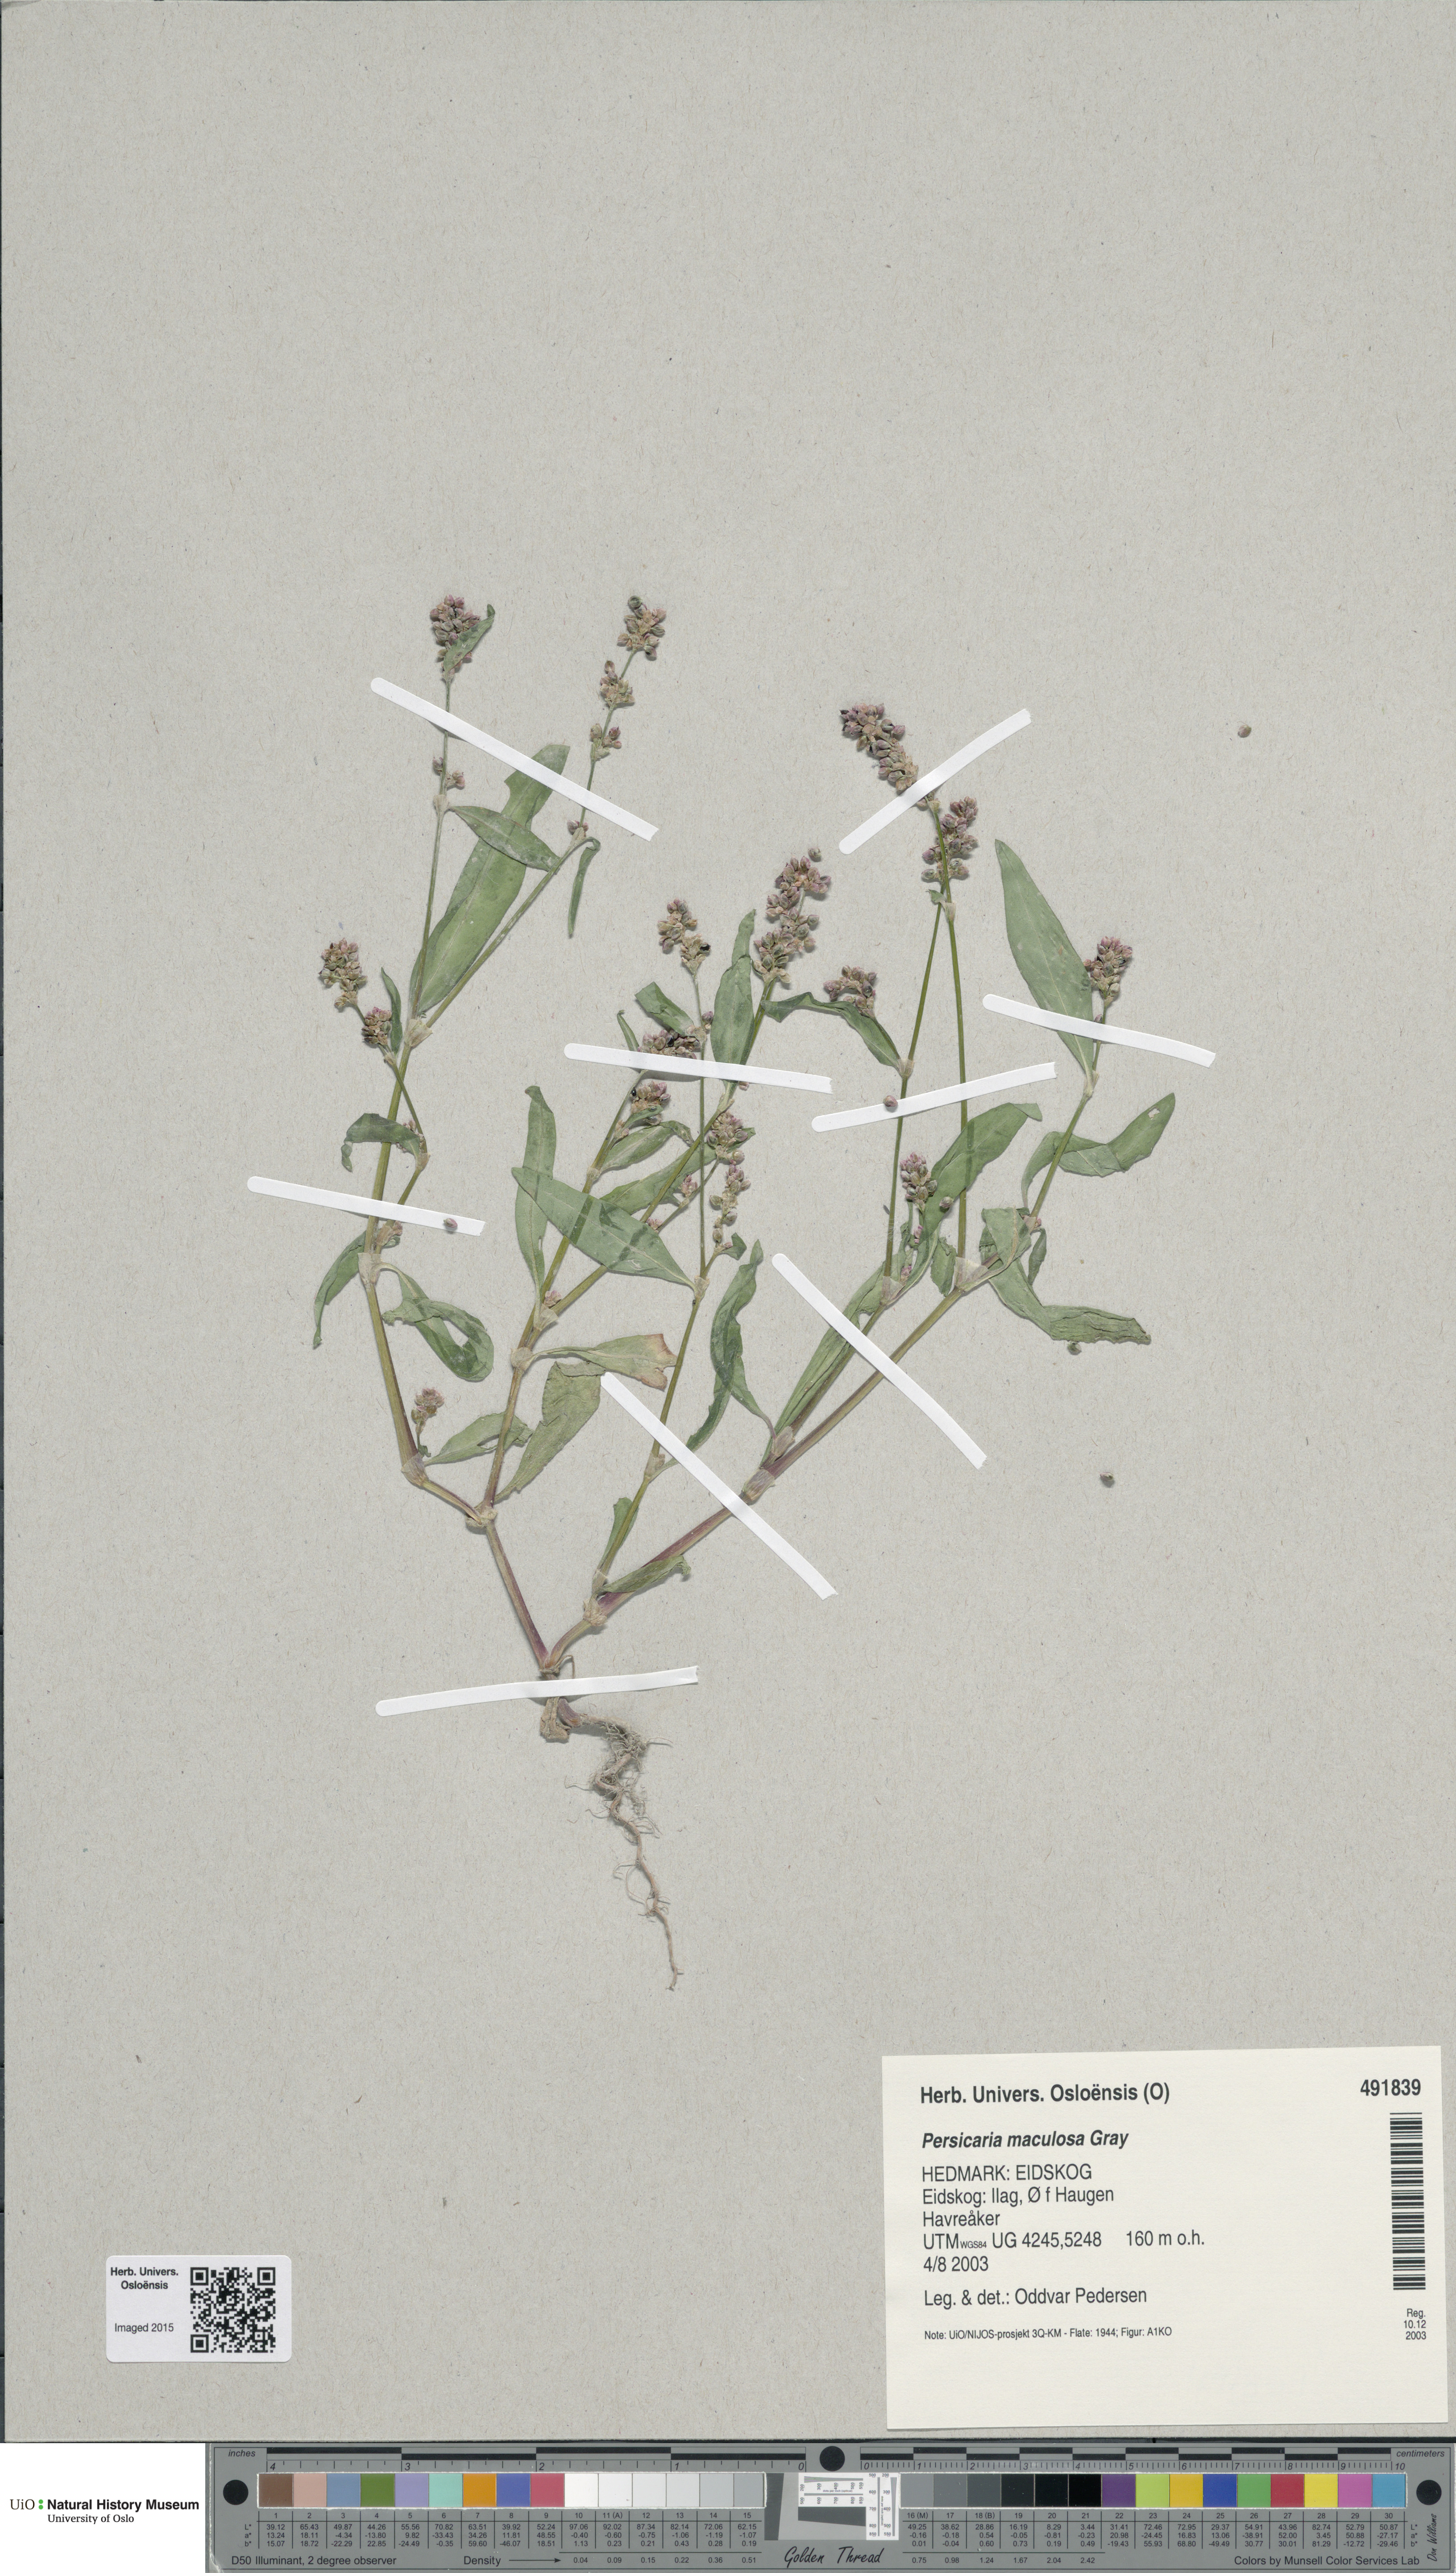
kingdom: Plantae
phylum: Tracheophyta
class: Magnoliopsida
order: Caryophyllales
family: Polygonaceae
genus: Persicaria
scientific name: Persicaria maculosa
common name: Redshank
